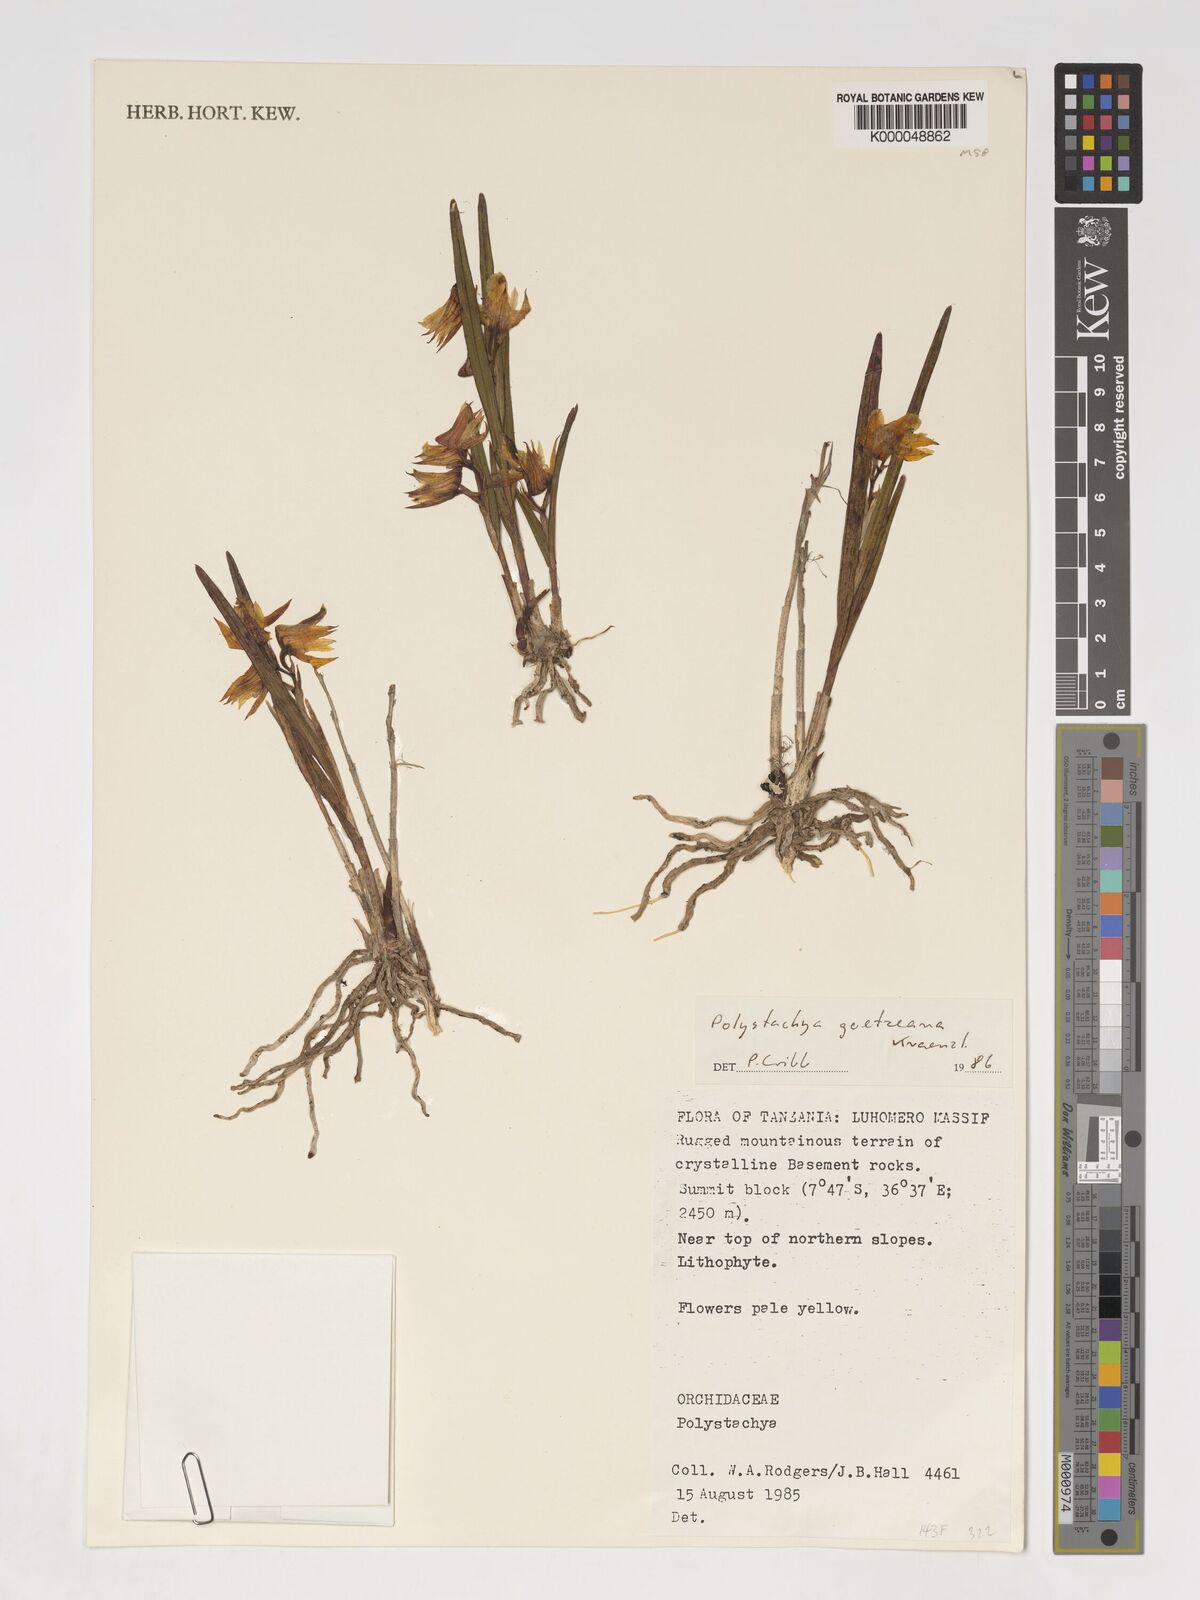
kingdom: Plantae
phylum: Tracheophyta
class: Liliopsida
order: Asparagales
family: Orchidaceae
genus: Polystachya
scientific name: Polystachya goetzeana
